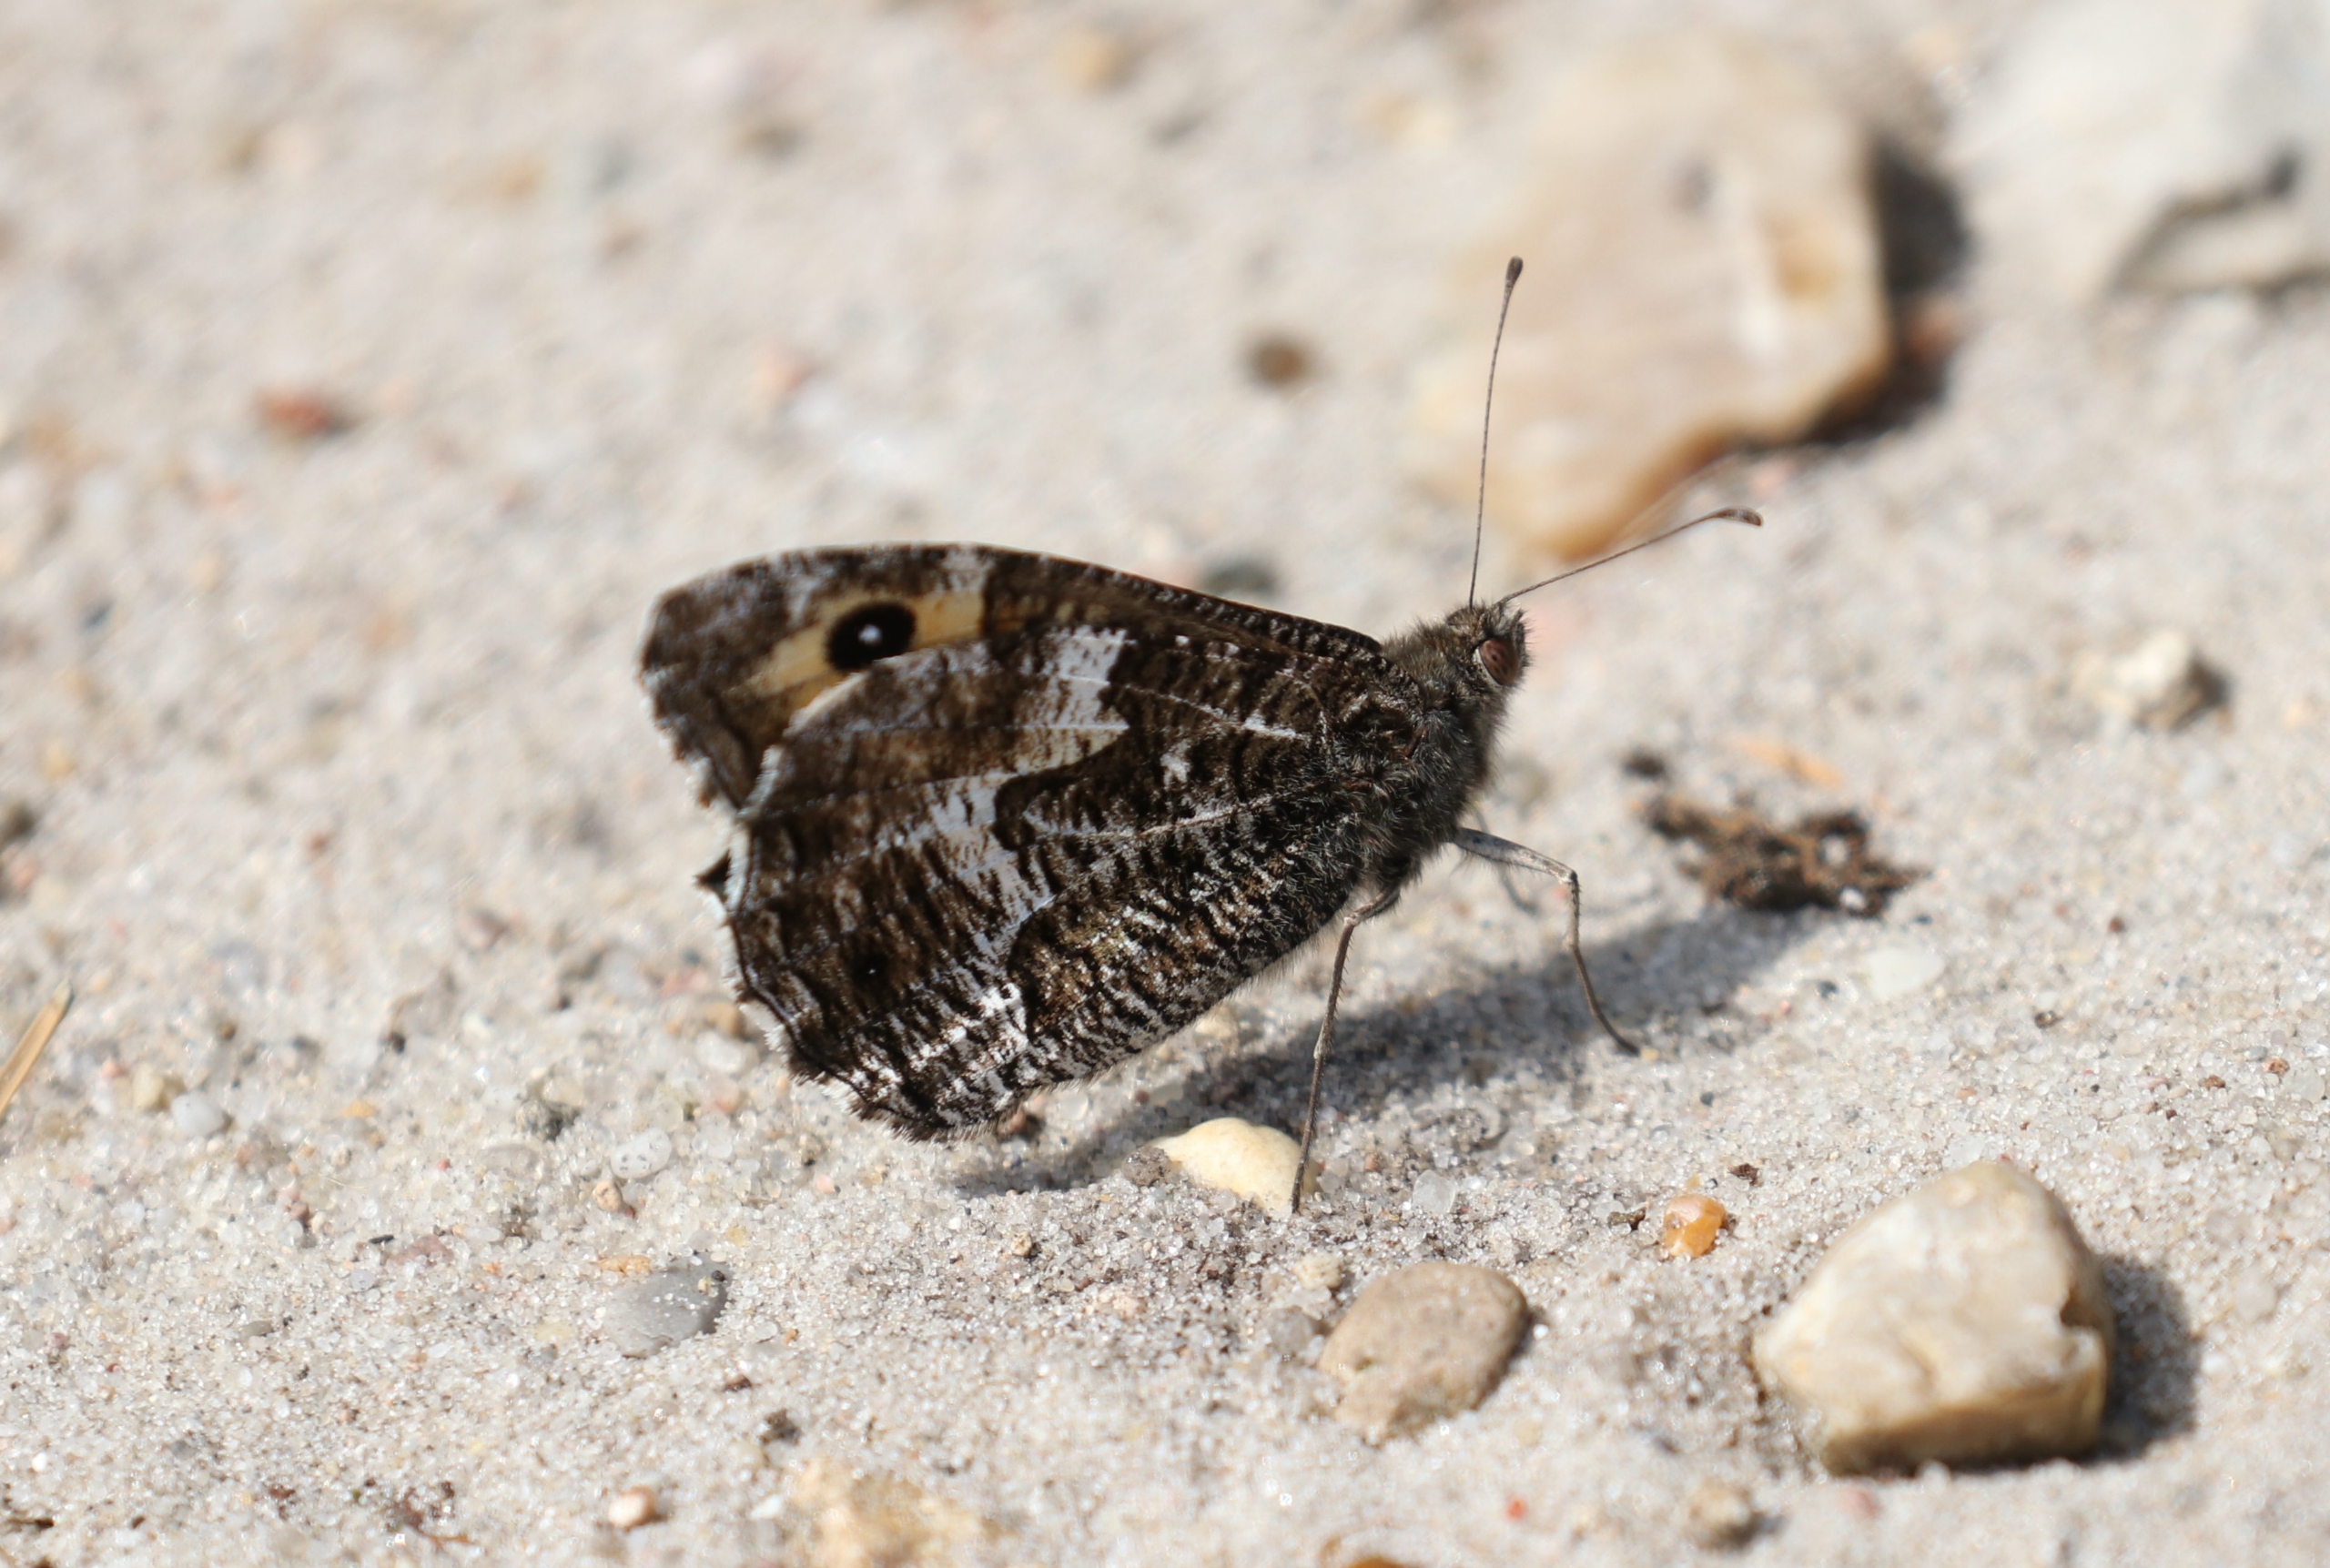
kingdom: Animalia
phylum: Arthropoda
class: Insecta
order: Lepidoptera
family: Nymphalidae
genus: Hipparchia
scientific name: Hipparchia semele
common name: Sandrandøje
